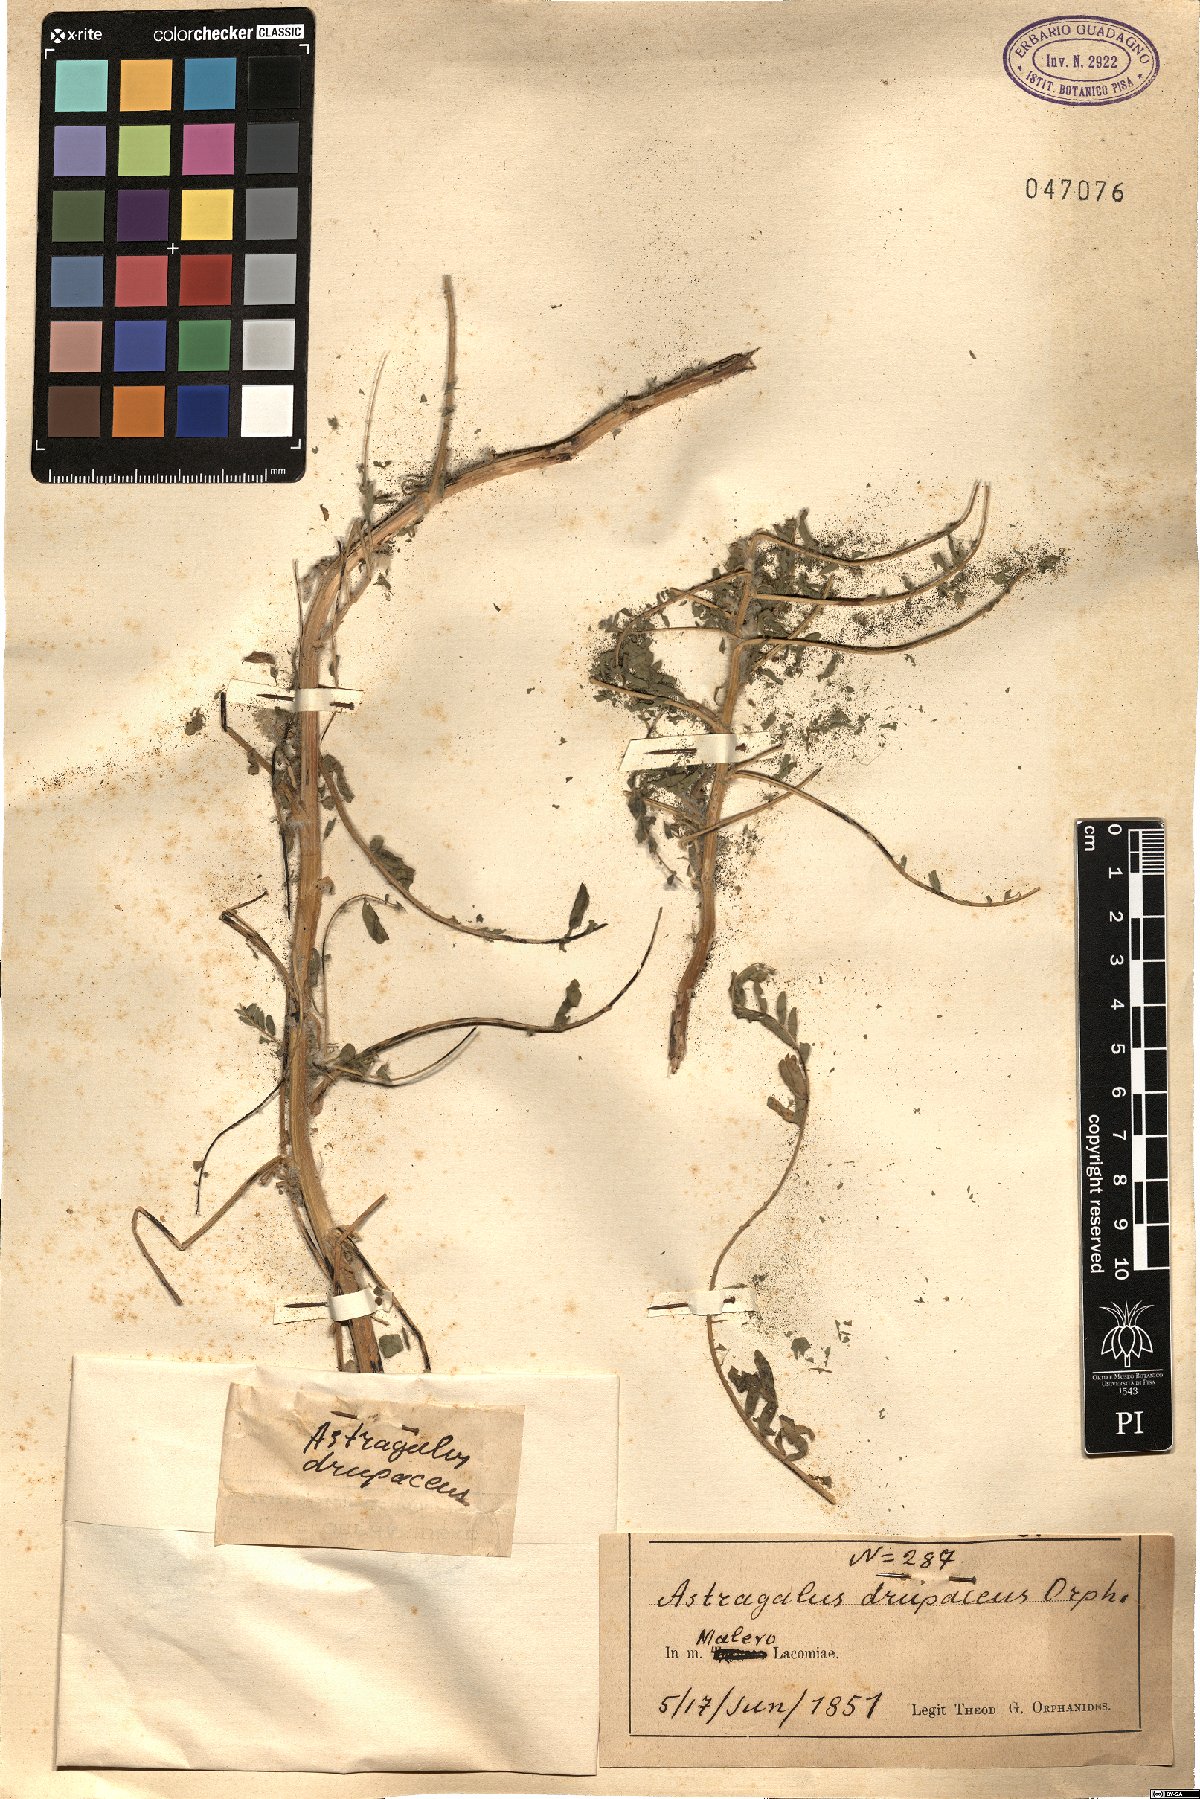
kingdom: Plantae
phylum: Tracheophyta
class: Magnoliopsida
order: Fabales
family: Fabaceae
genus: Astragalus
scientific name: Astragalus drupaceus
